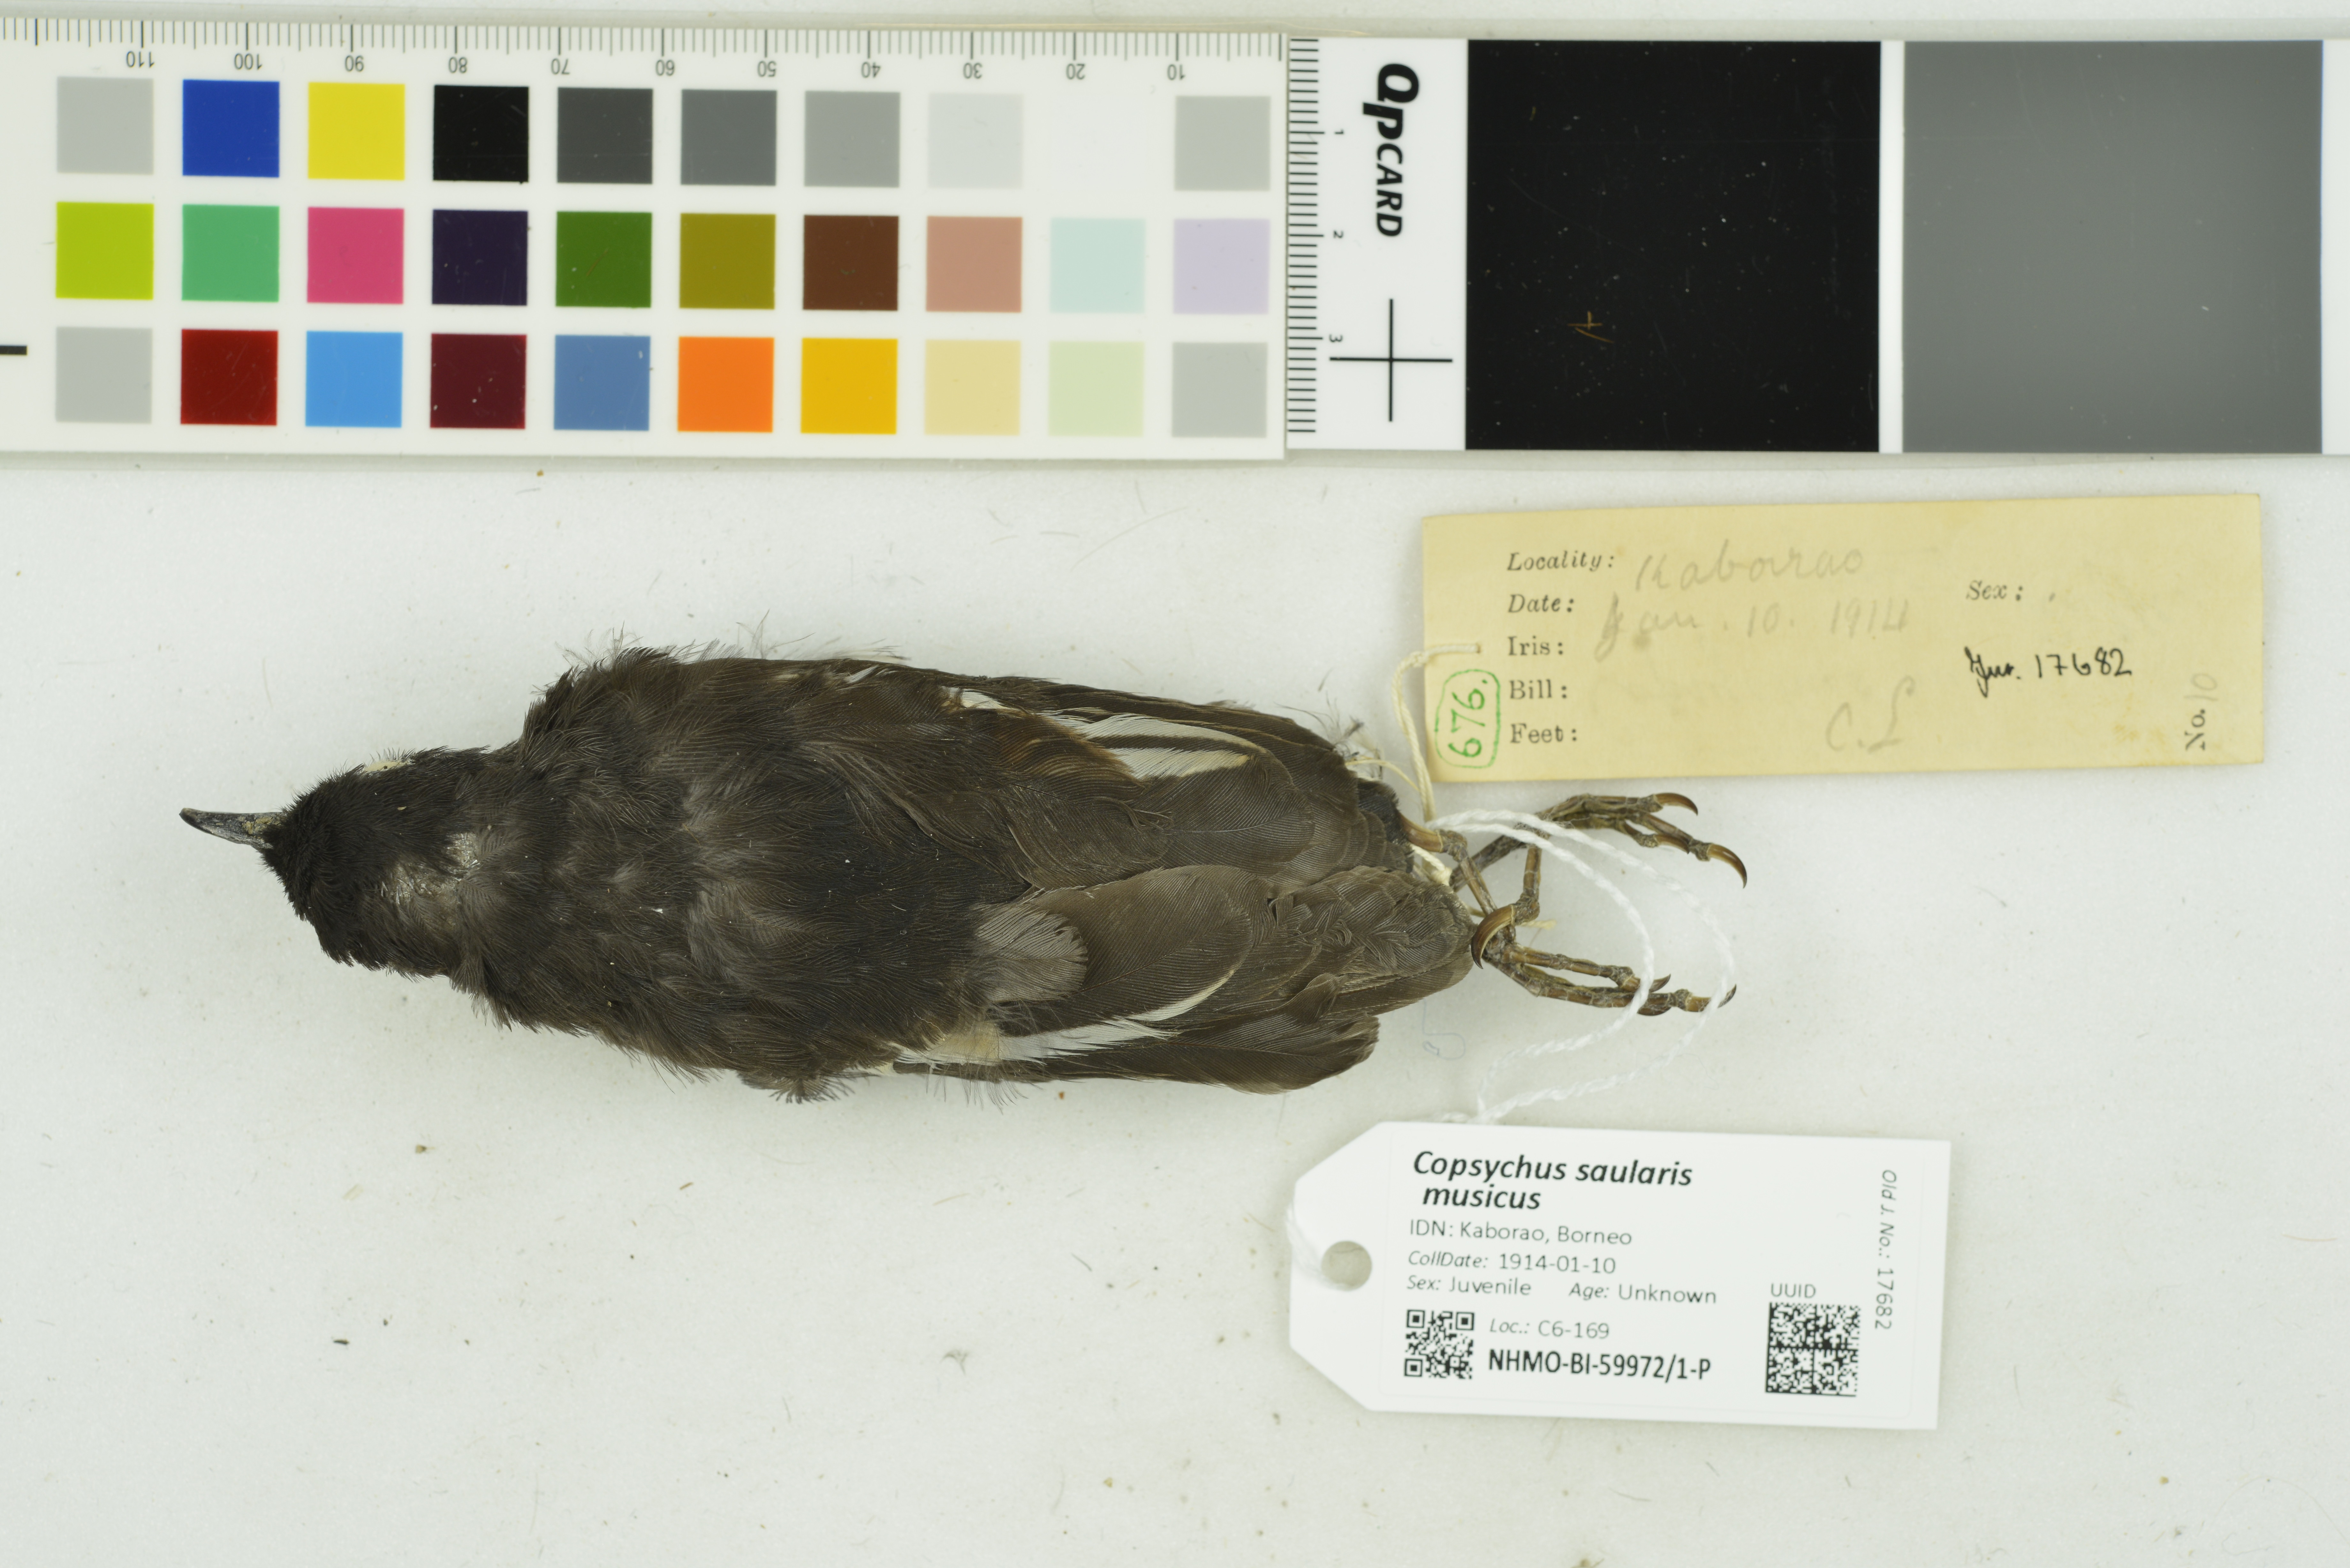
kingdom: Animalia
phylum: Chordata
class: Aves
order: Passeriformes
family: Muscicapidae
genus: Copsychus
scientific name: Copsychus saularis
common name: Oriental magpie-robin
